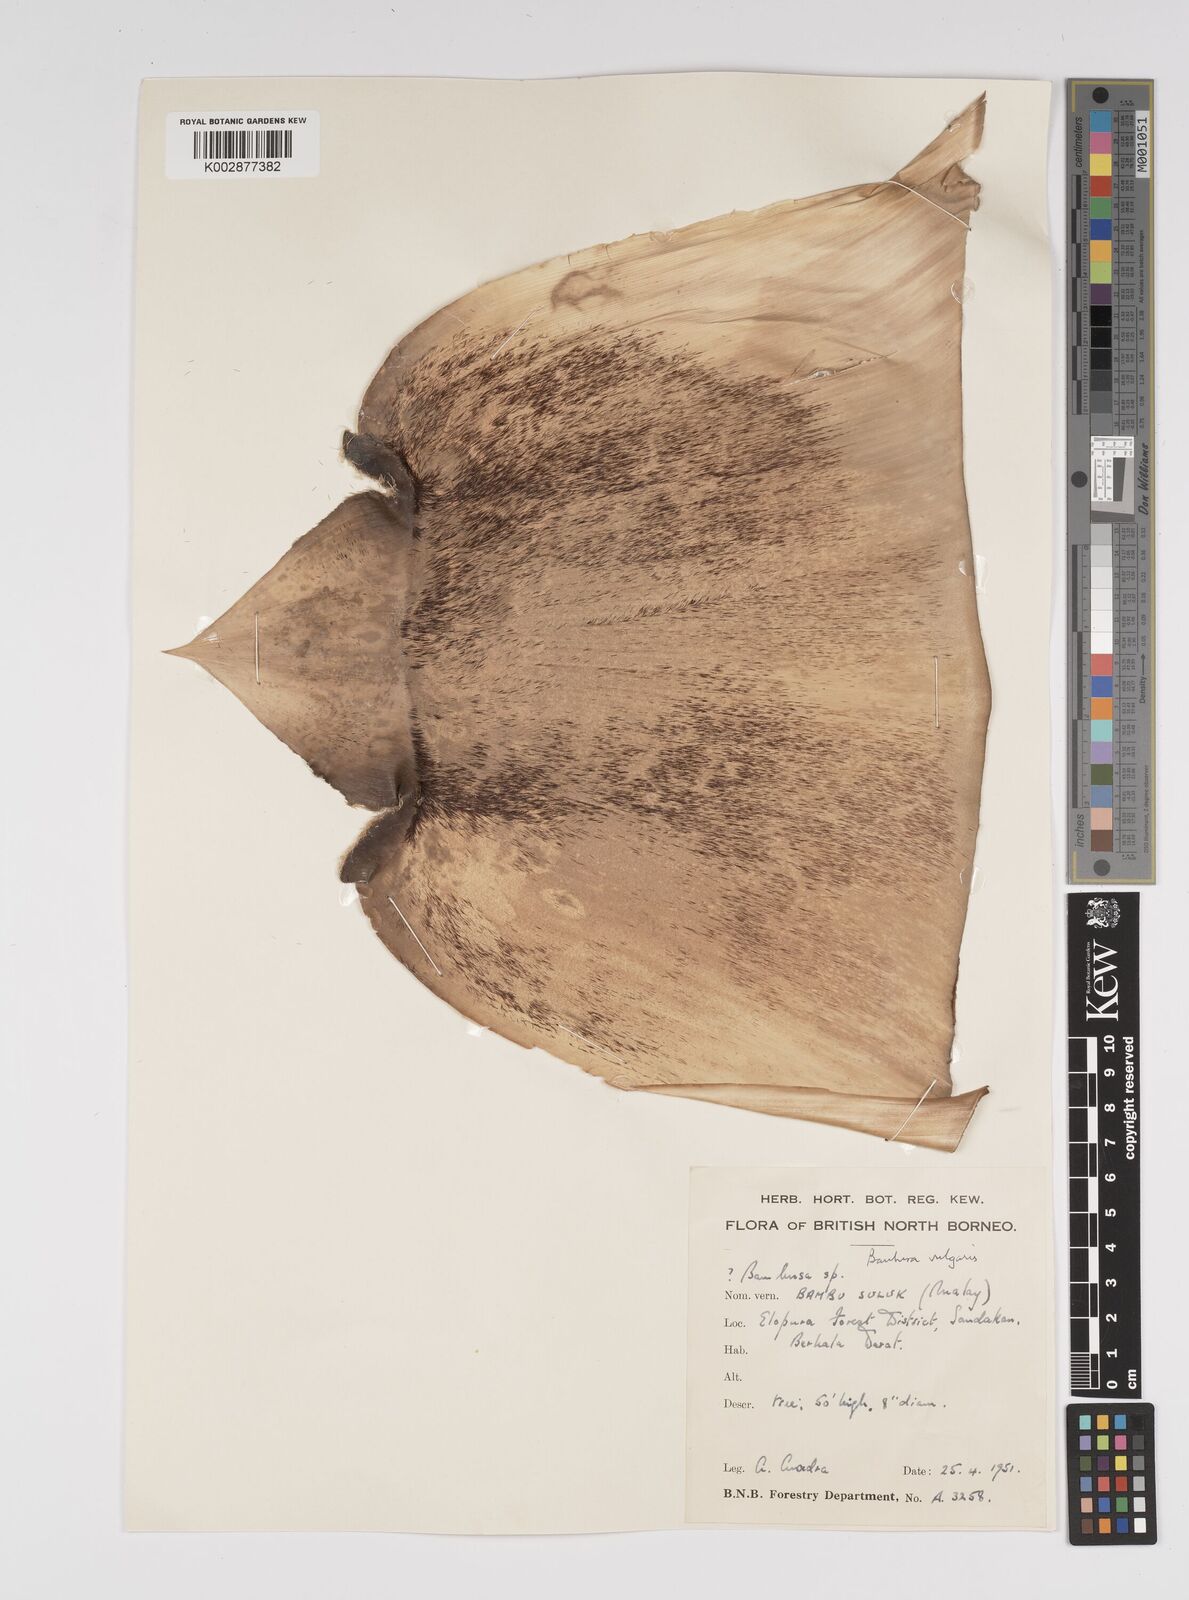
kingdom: Plantae
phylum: Tracheophyta
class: Liliopsida
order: Poales
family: Poaceae
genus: Bambusa
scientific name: Bambusa
